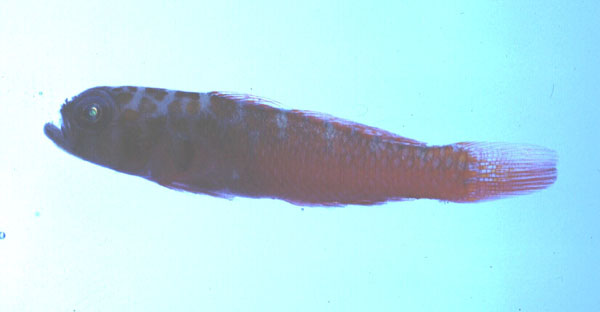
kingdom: Animalia
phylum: Chordata
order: Perciformes
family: Gobiidae
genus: Trimma
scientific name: Trimma flammeum
